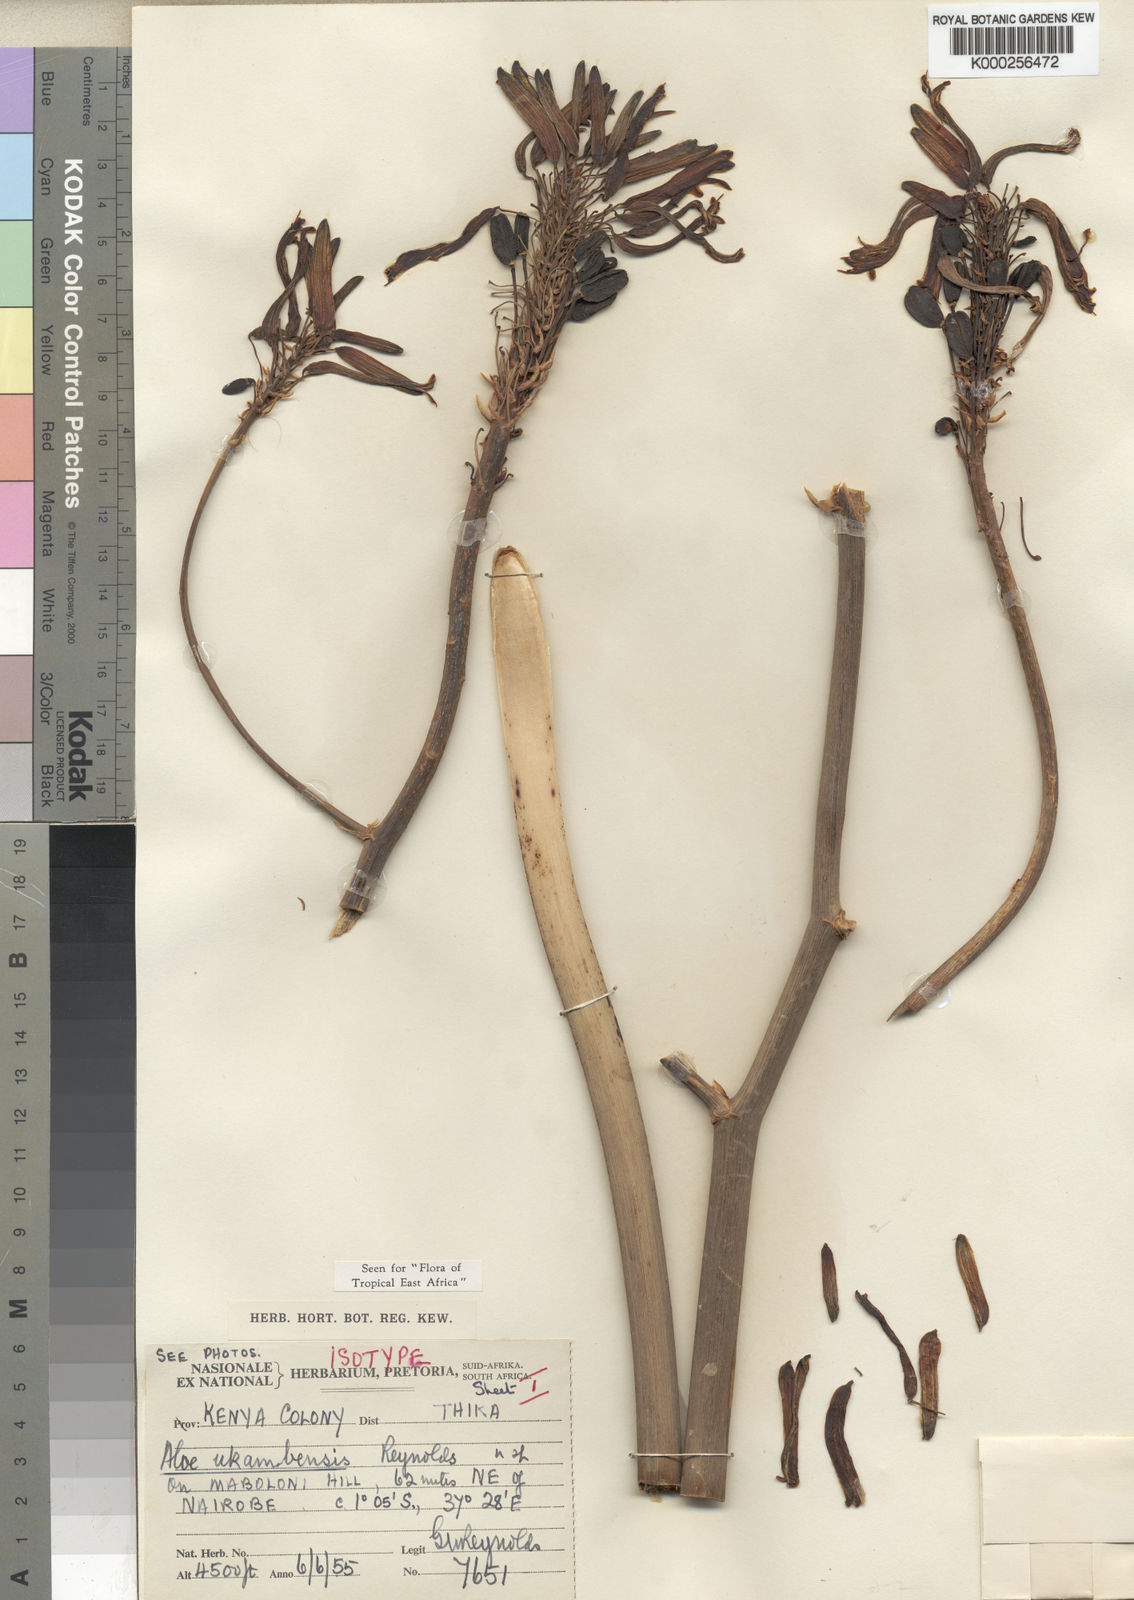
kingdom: Plantae
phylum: Tracheophyta
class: Liliopsida
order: Asparagales
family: Asphodelaceae
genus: Aloe
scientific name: Aloe ukambensis
